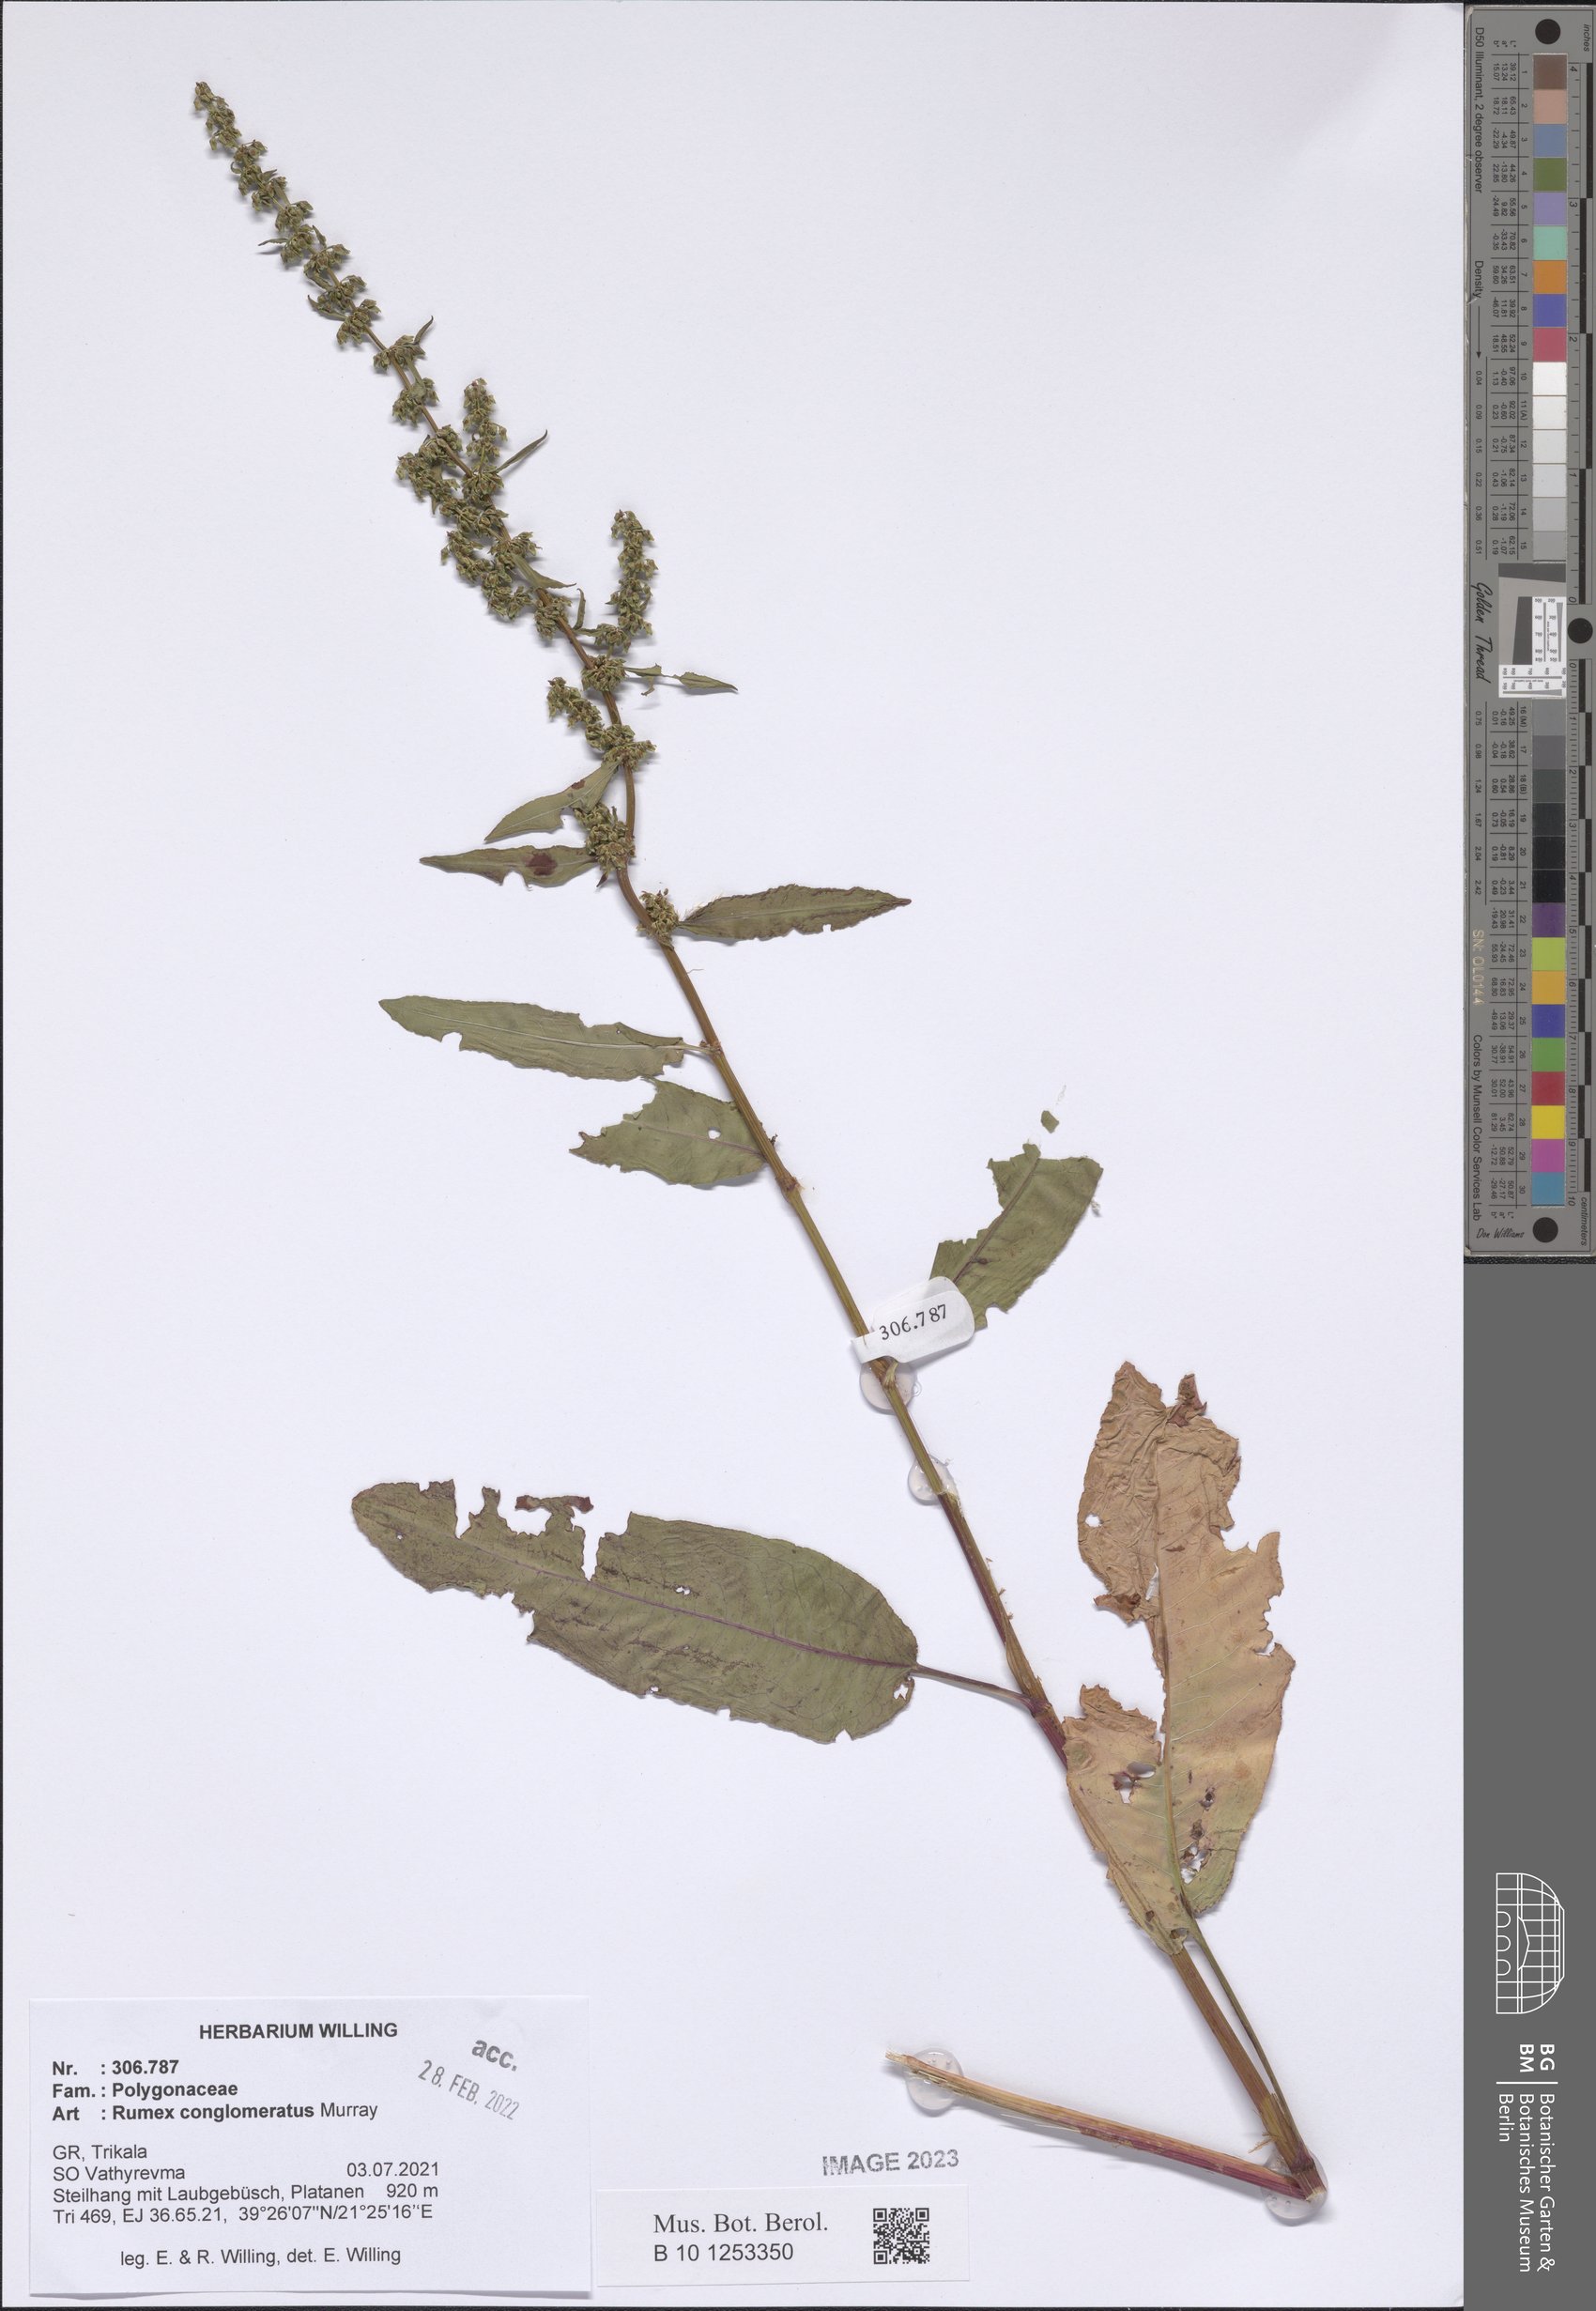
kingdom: Plantae
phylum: Tracheophyta
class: Magnoliopsida
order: Caryophyllales
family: Polygonaceae
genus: Rumex
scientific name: Rumex conglomeratus
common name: Clustered dock
